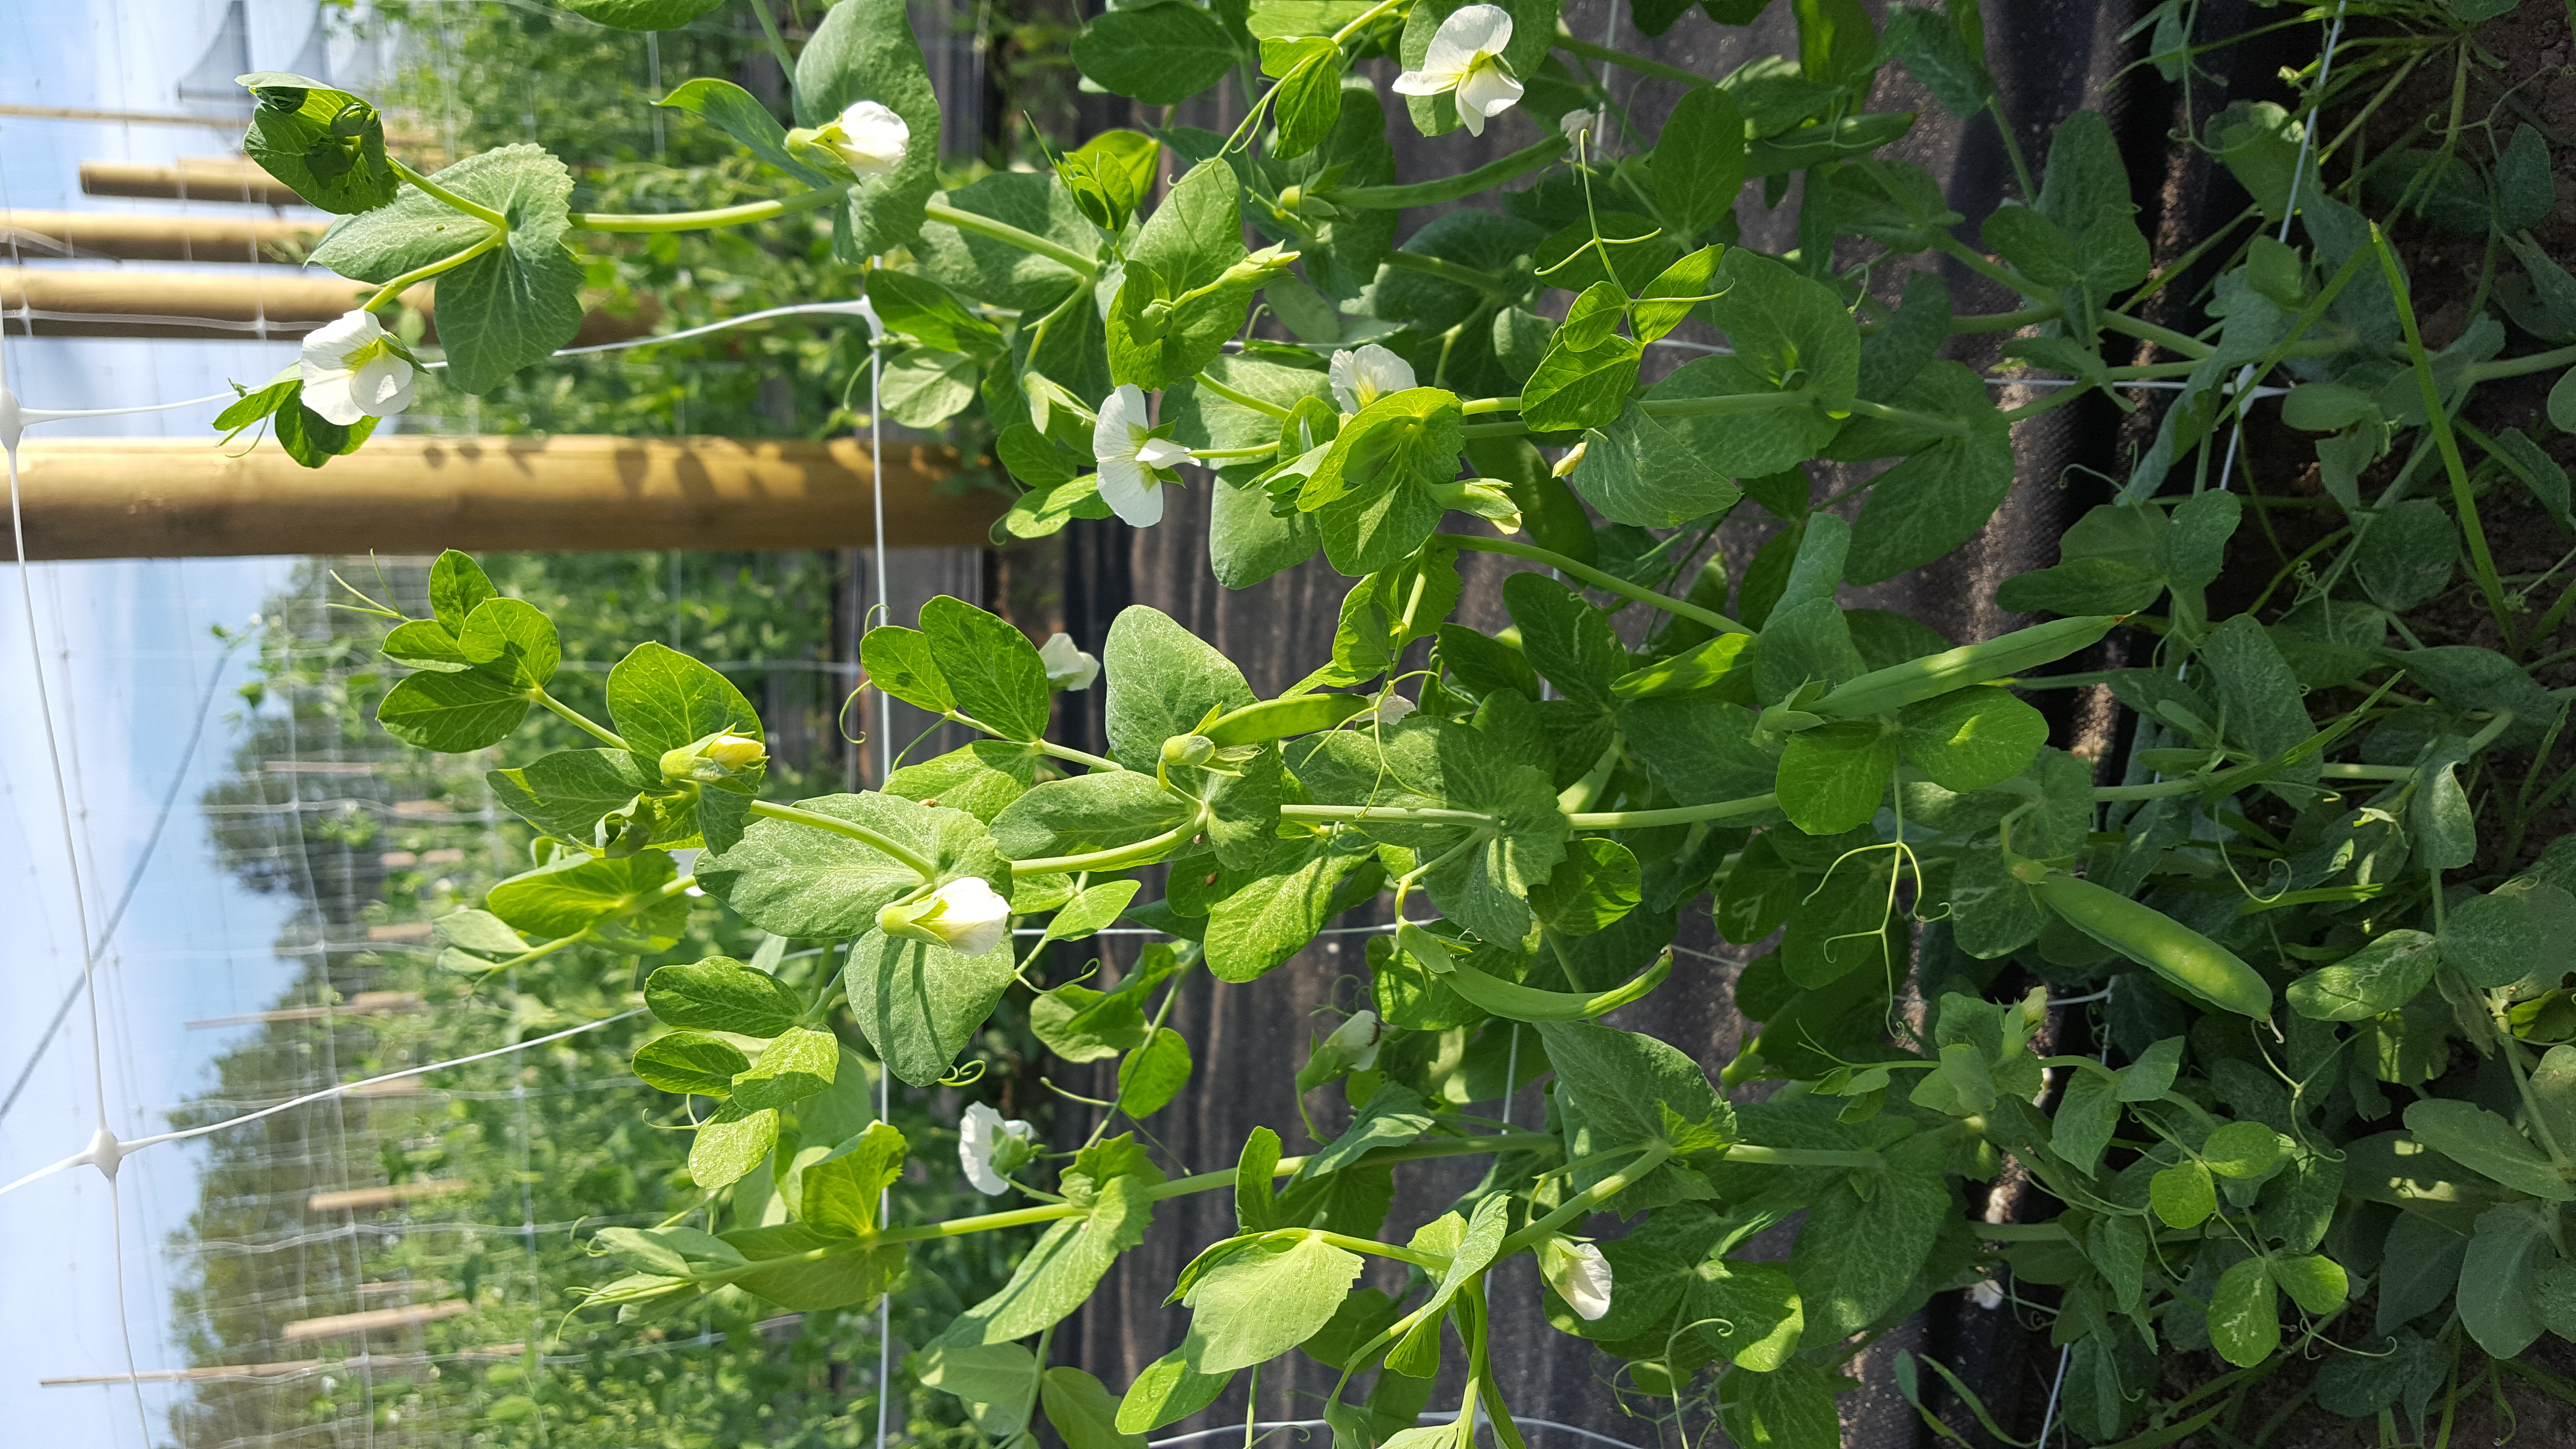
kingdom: Plantae
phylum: Tracheophyta
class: Magnoliopsida
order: Fabales
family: Fabaceae
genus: Lathyrus
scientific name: Lathyrus oleraceus
